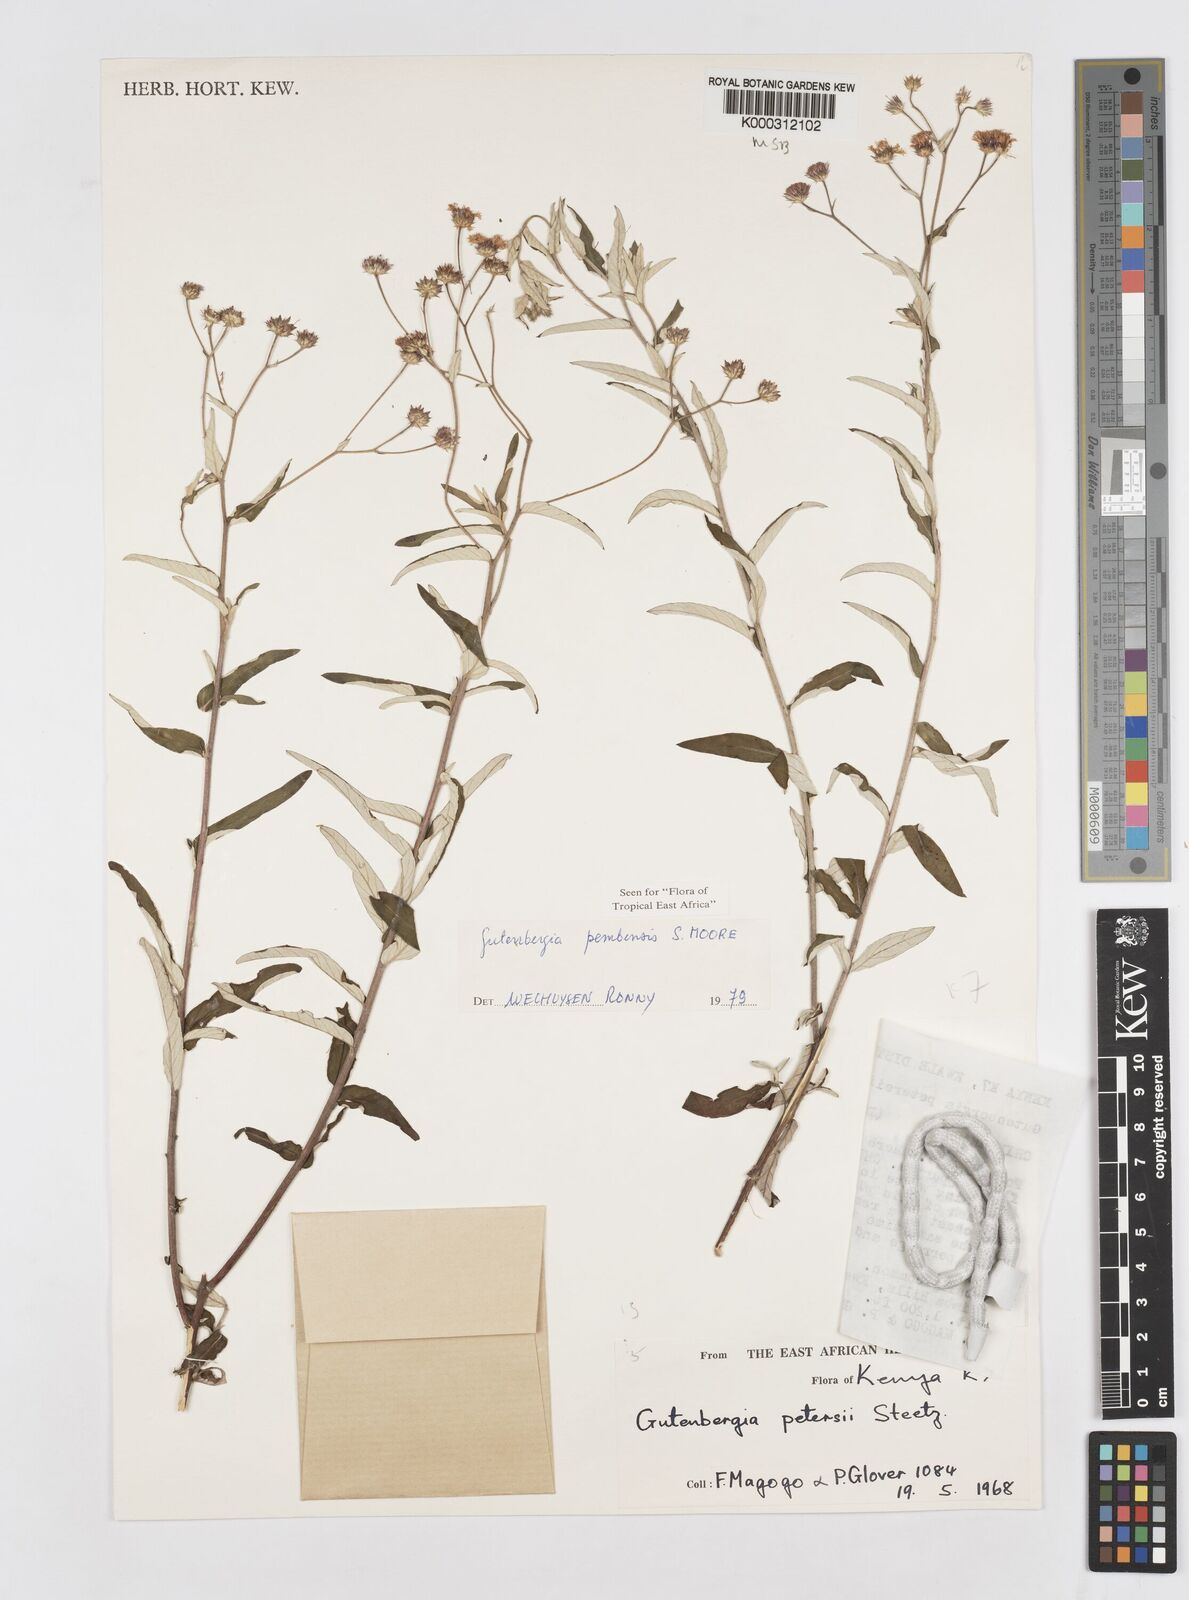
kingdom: Plantae
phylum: Tracheophyta
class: Magnoliopsida
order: Asterales
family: Asteraceae
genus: Gutenbergia
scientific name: Gutenbergia pembensis
